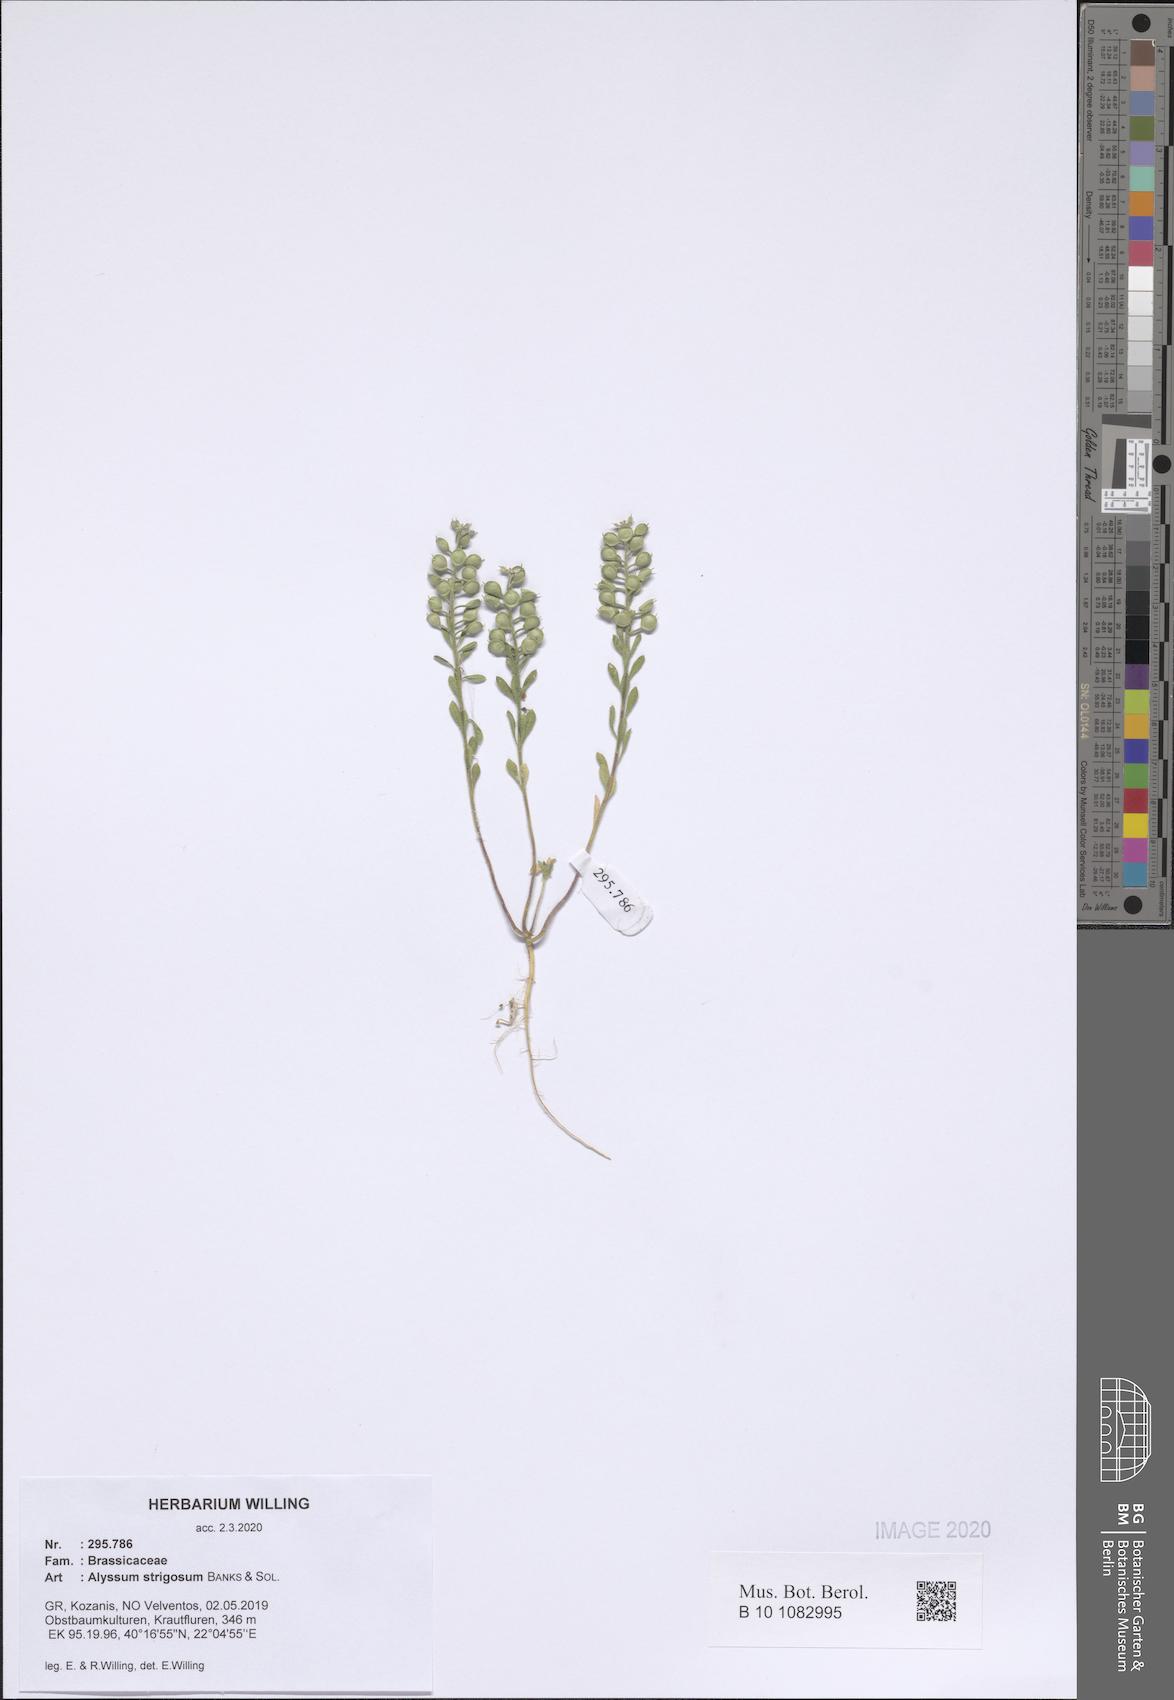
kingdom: Plantae
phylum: Tracheophyta
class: Magnoliopsida
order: Brassicales
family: Brassicaceae
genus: Alyssum
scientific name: Alyssum strigosum
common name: Alyssum
